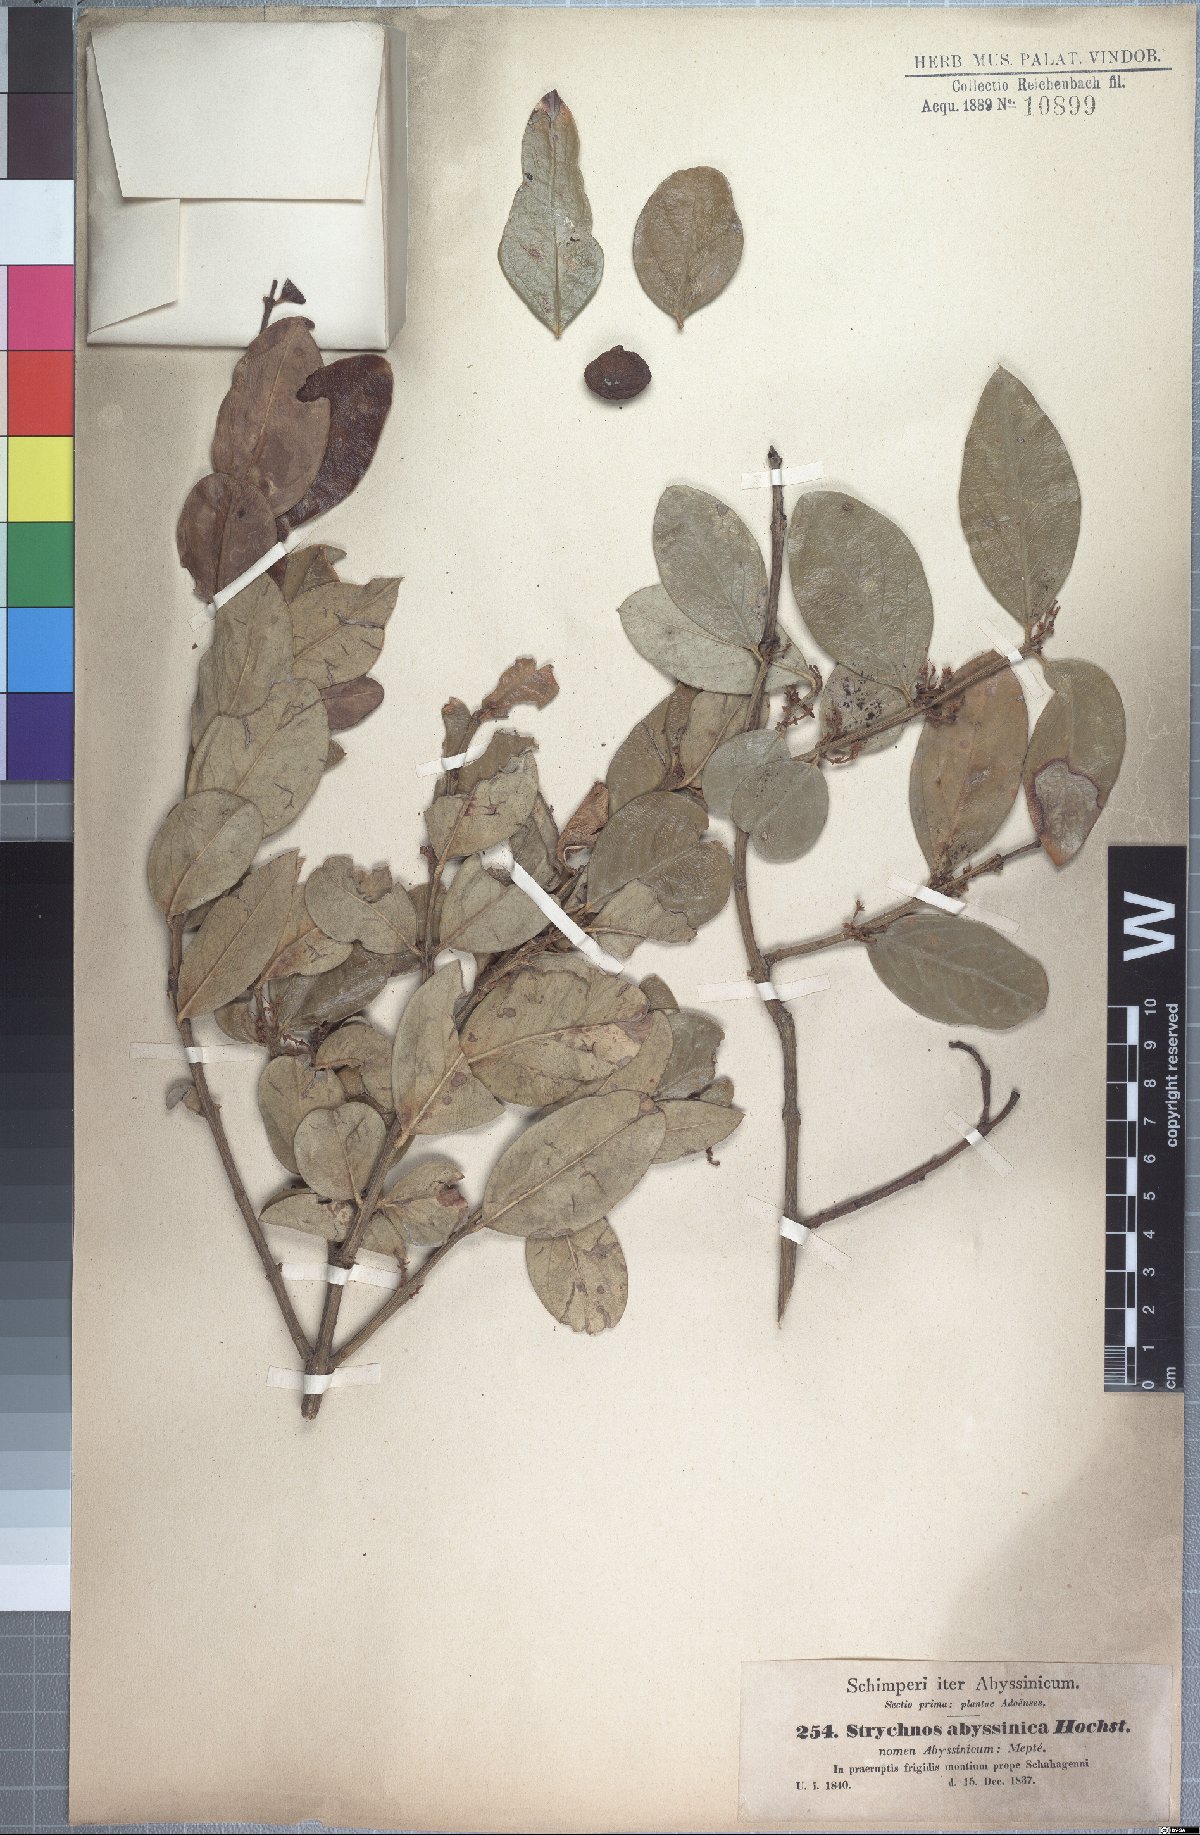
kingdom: Plantae
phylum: Tracheophyta
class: Magnoliopsida
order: Gentianales
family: Apocynaceae
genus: Acokanthera
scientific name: Acokanthera schimperi
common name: Arrow-poison-tree
